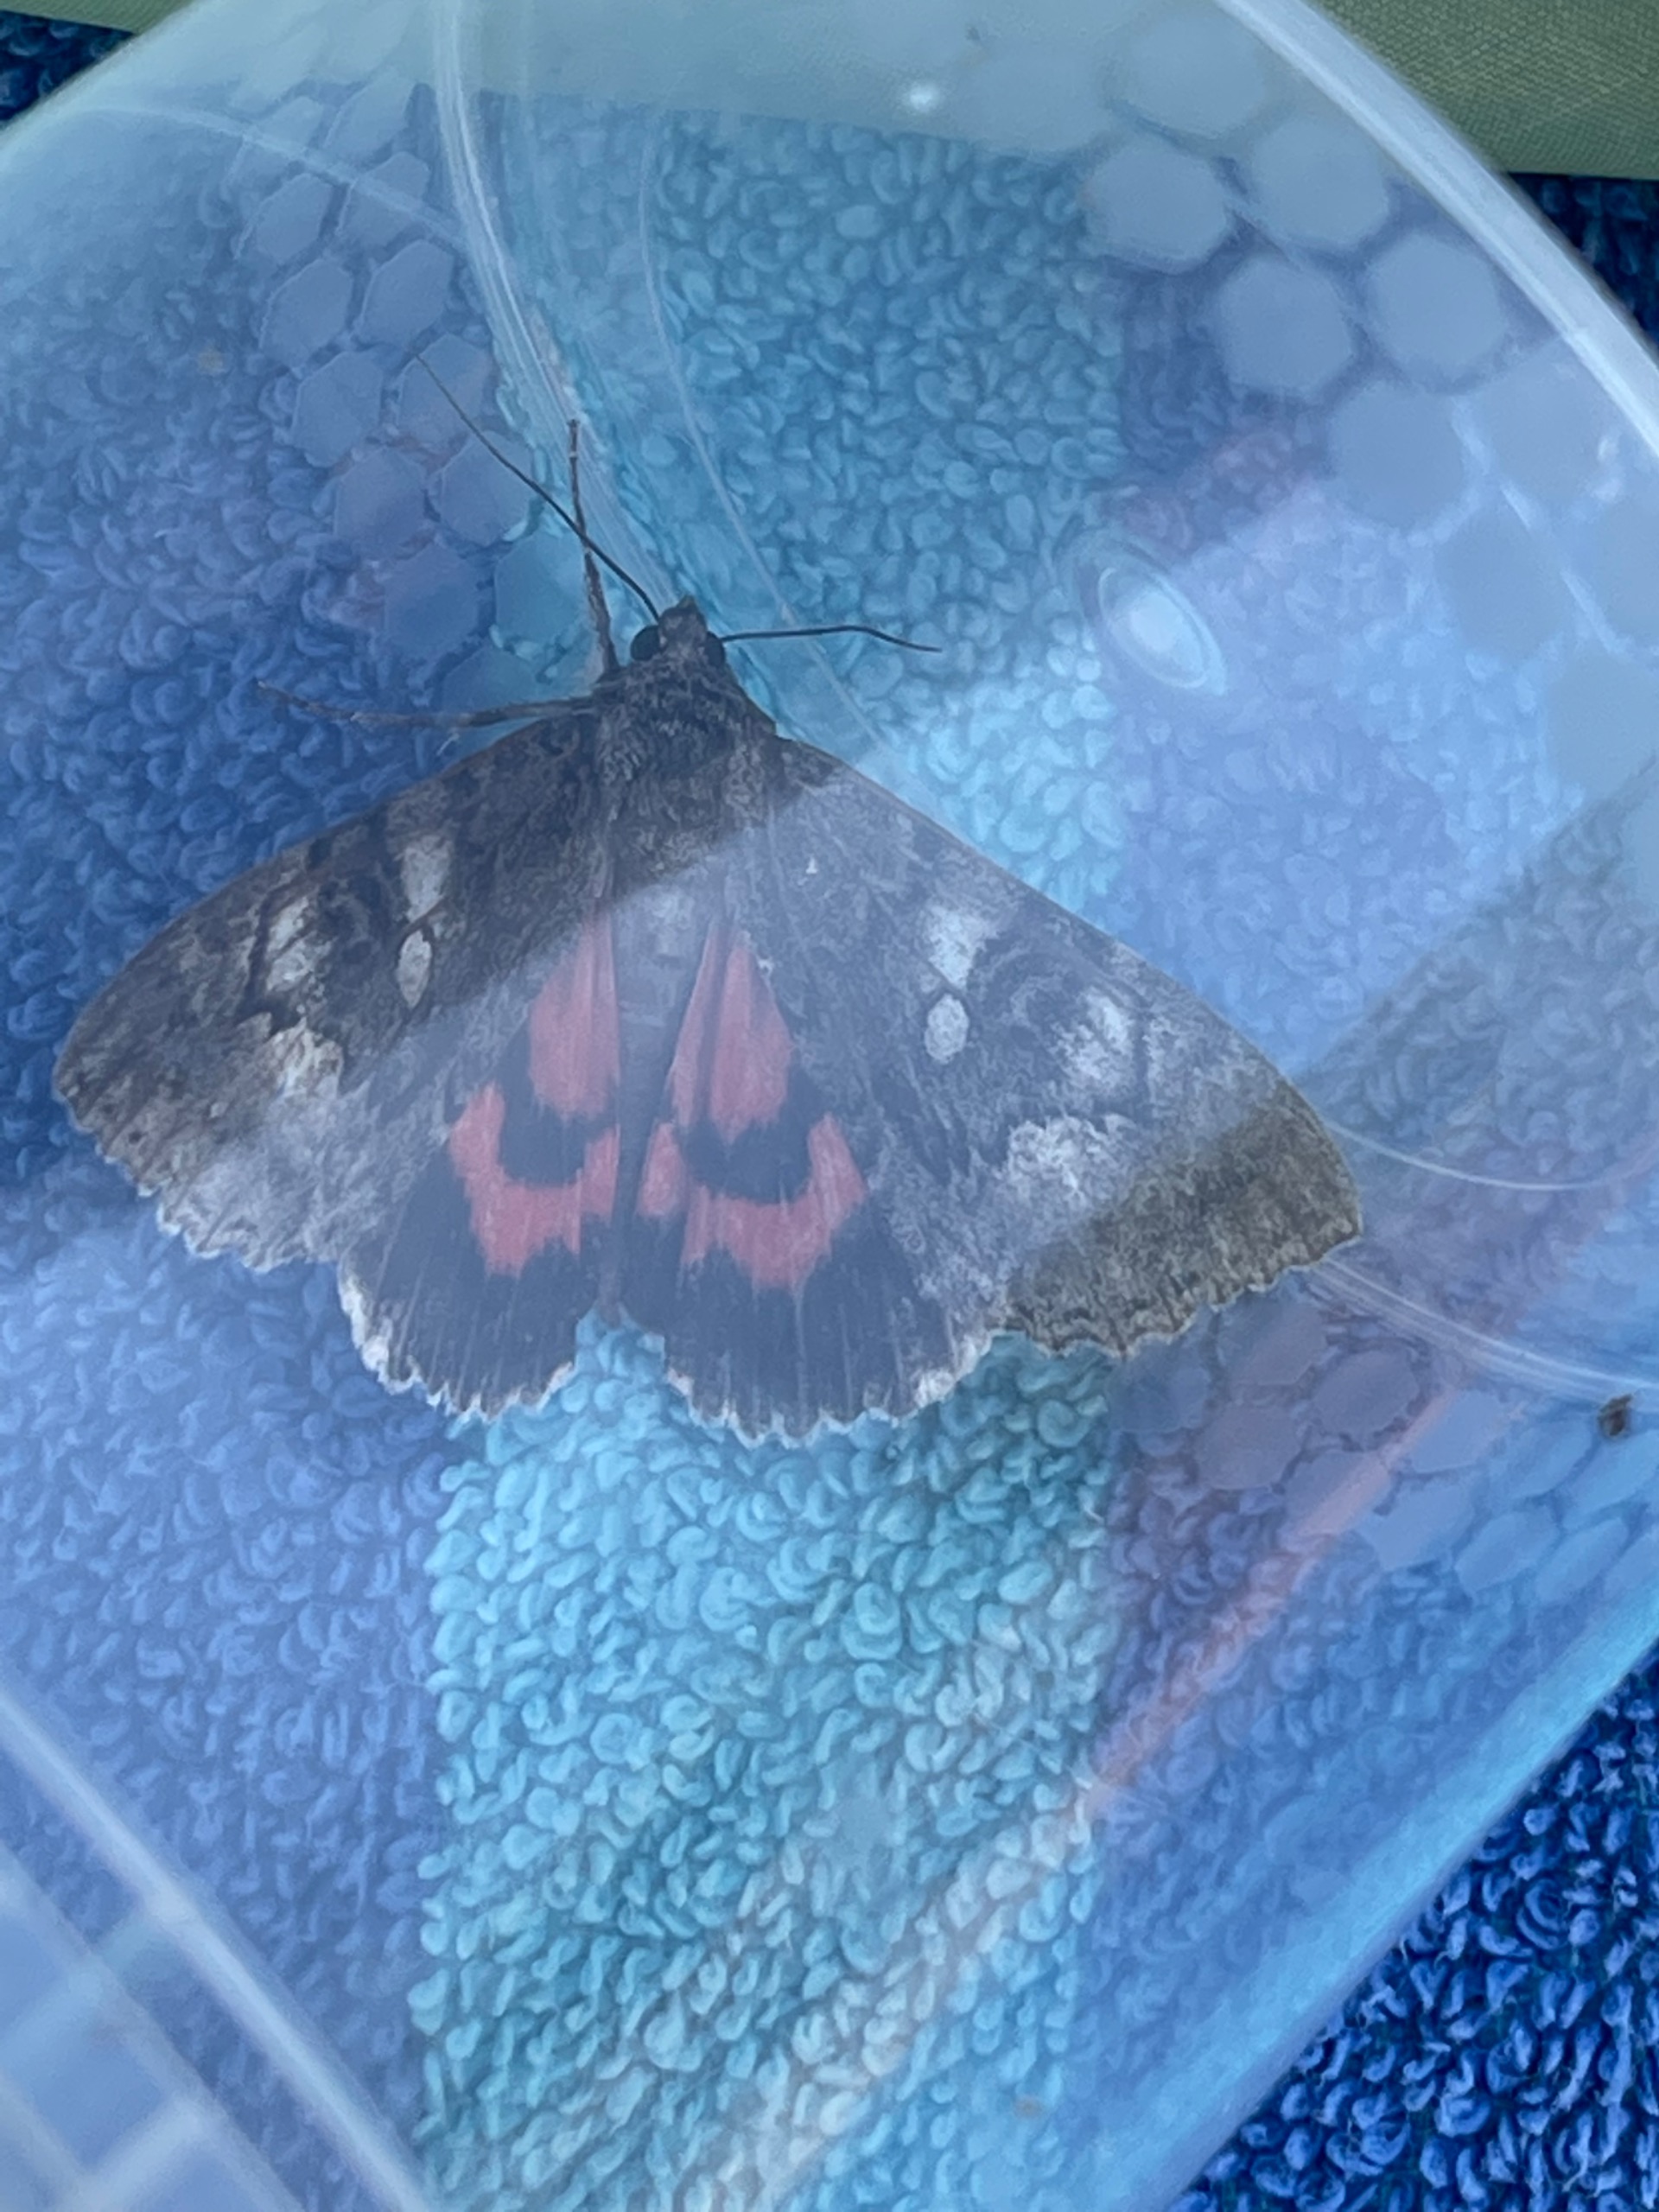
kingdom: Animalia
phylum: Arthropoda
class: Insecta
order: Lepidoptera
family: Erebidae
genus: Catocala
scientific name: Catocala nupta
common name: Rødt ordensbånd
